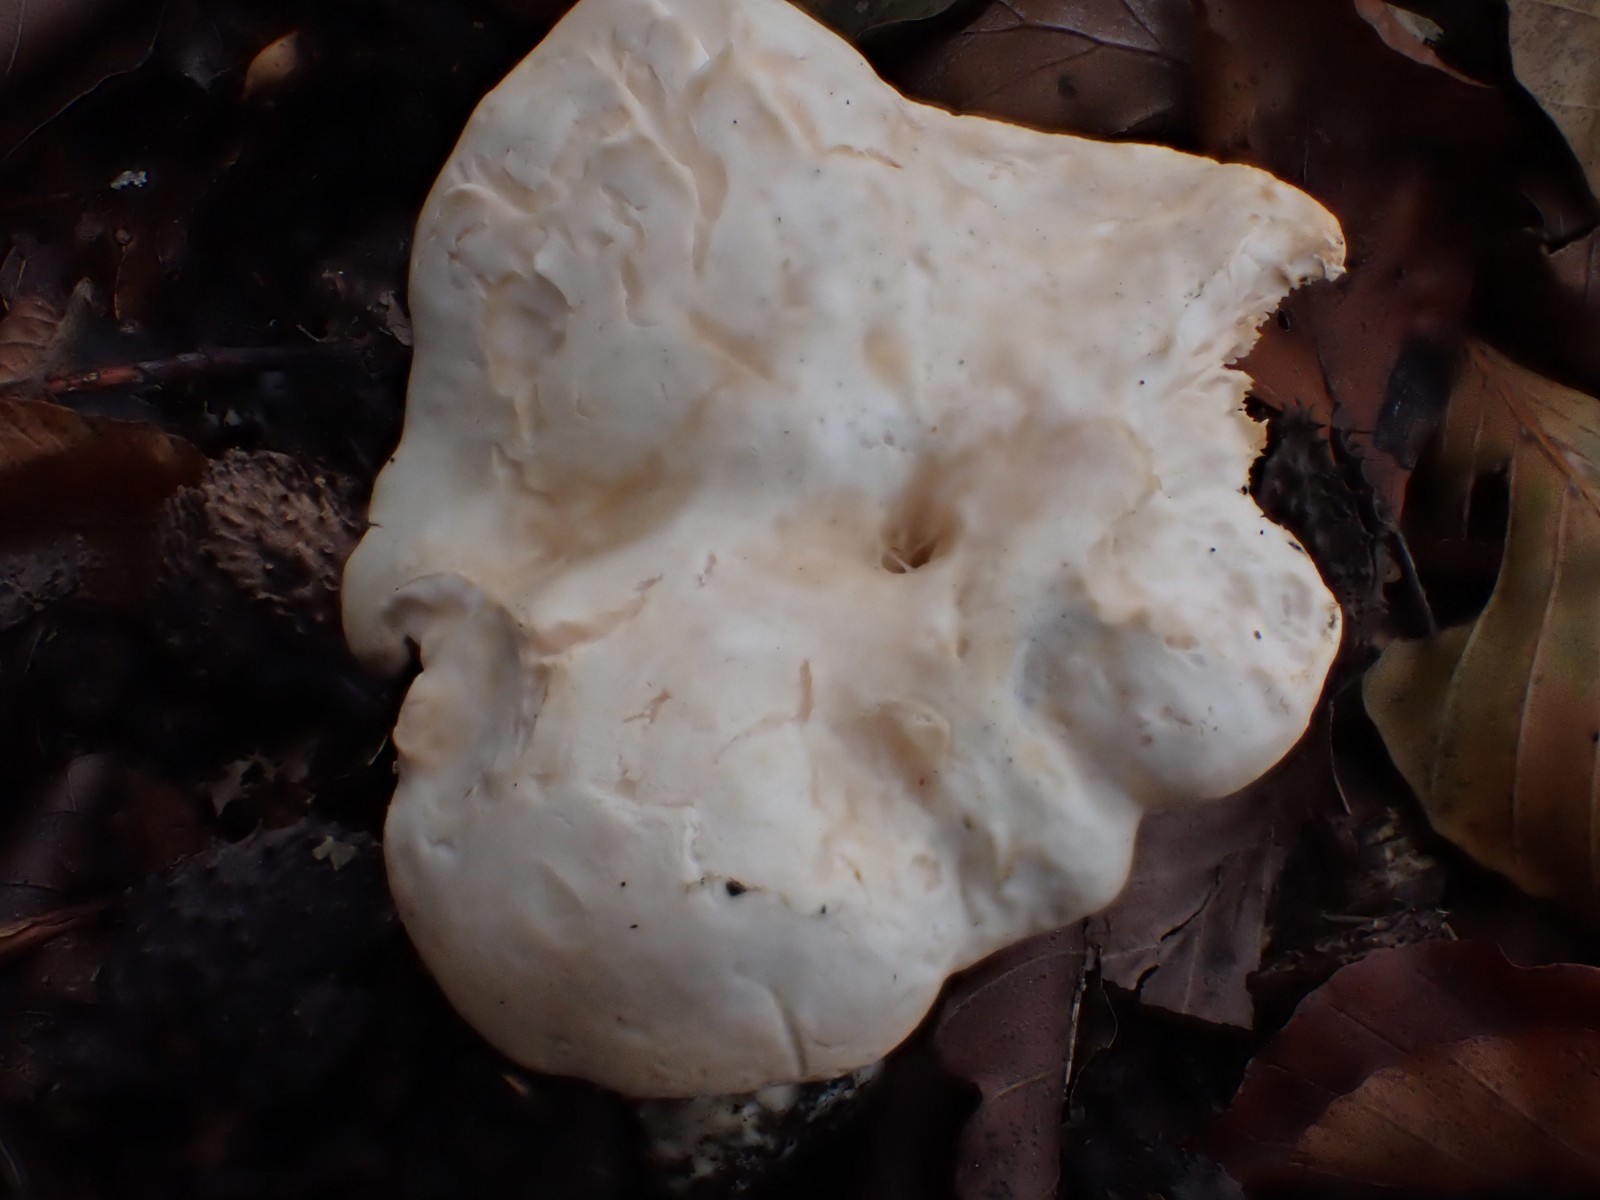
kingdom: Fungi
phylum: Basidiomycota
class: Agaricomycetes
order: Cantharellales
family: Hydnaceae
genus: Hydnum
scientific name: Hydnum repandum
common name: almindelig pigsvamp
